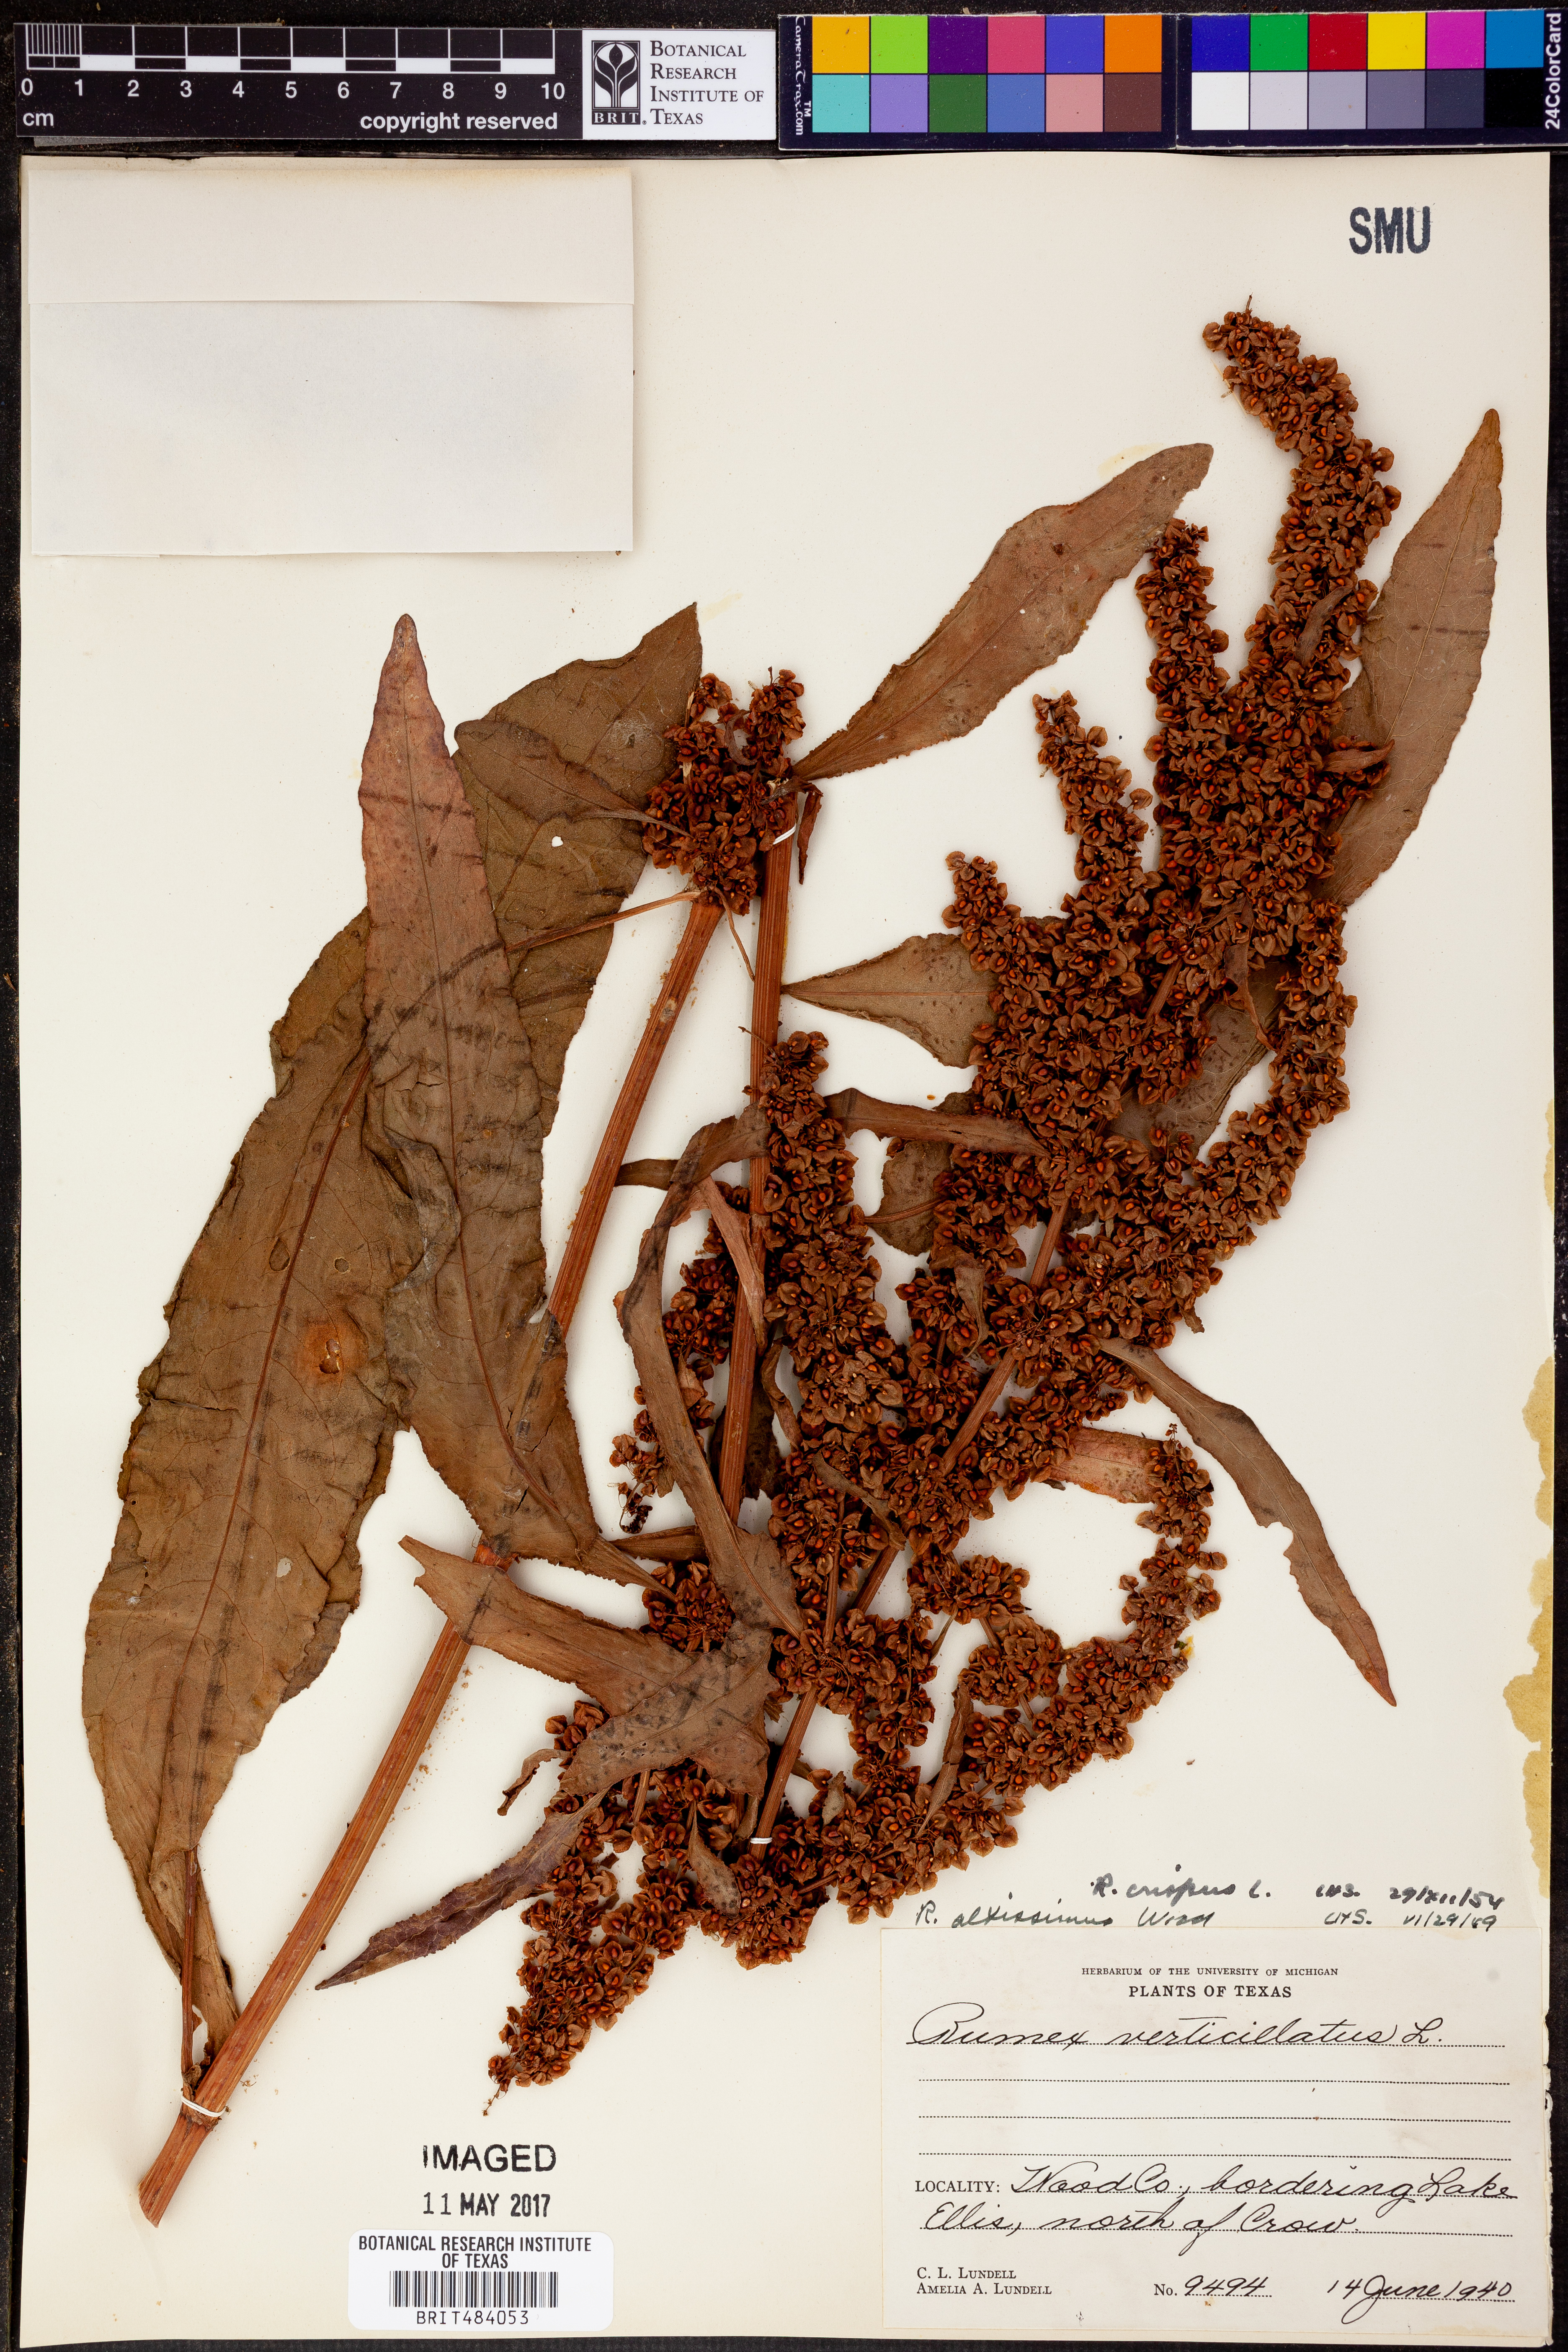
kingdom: Plantae
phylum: Tracheophyta
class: Magnoliopsida
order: Caryophyllales
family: Polygonaceae
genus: Rumex
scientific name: Rumex crispus
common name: Curled dock
